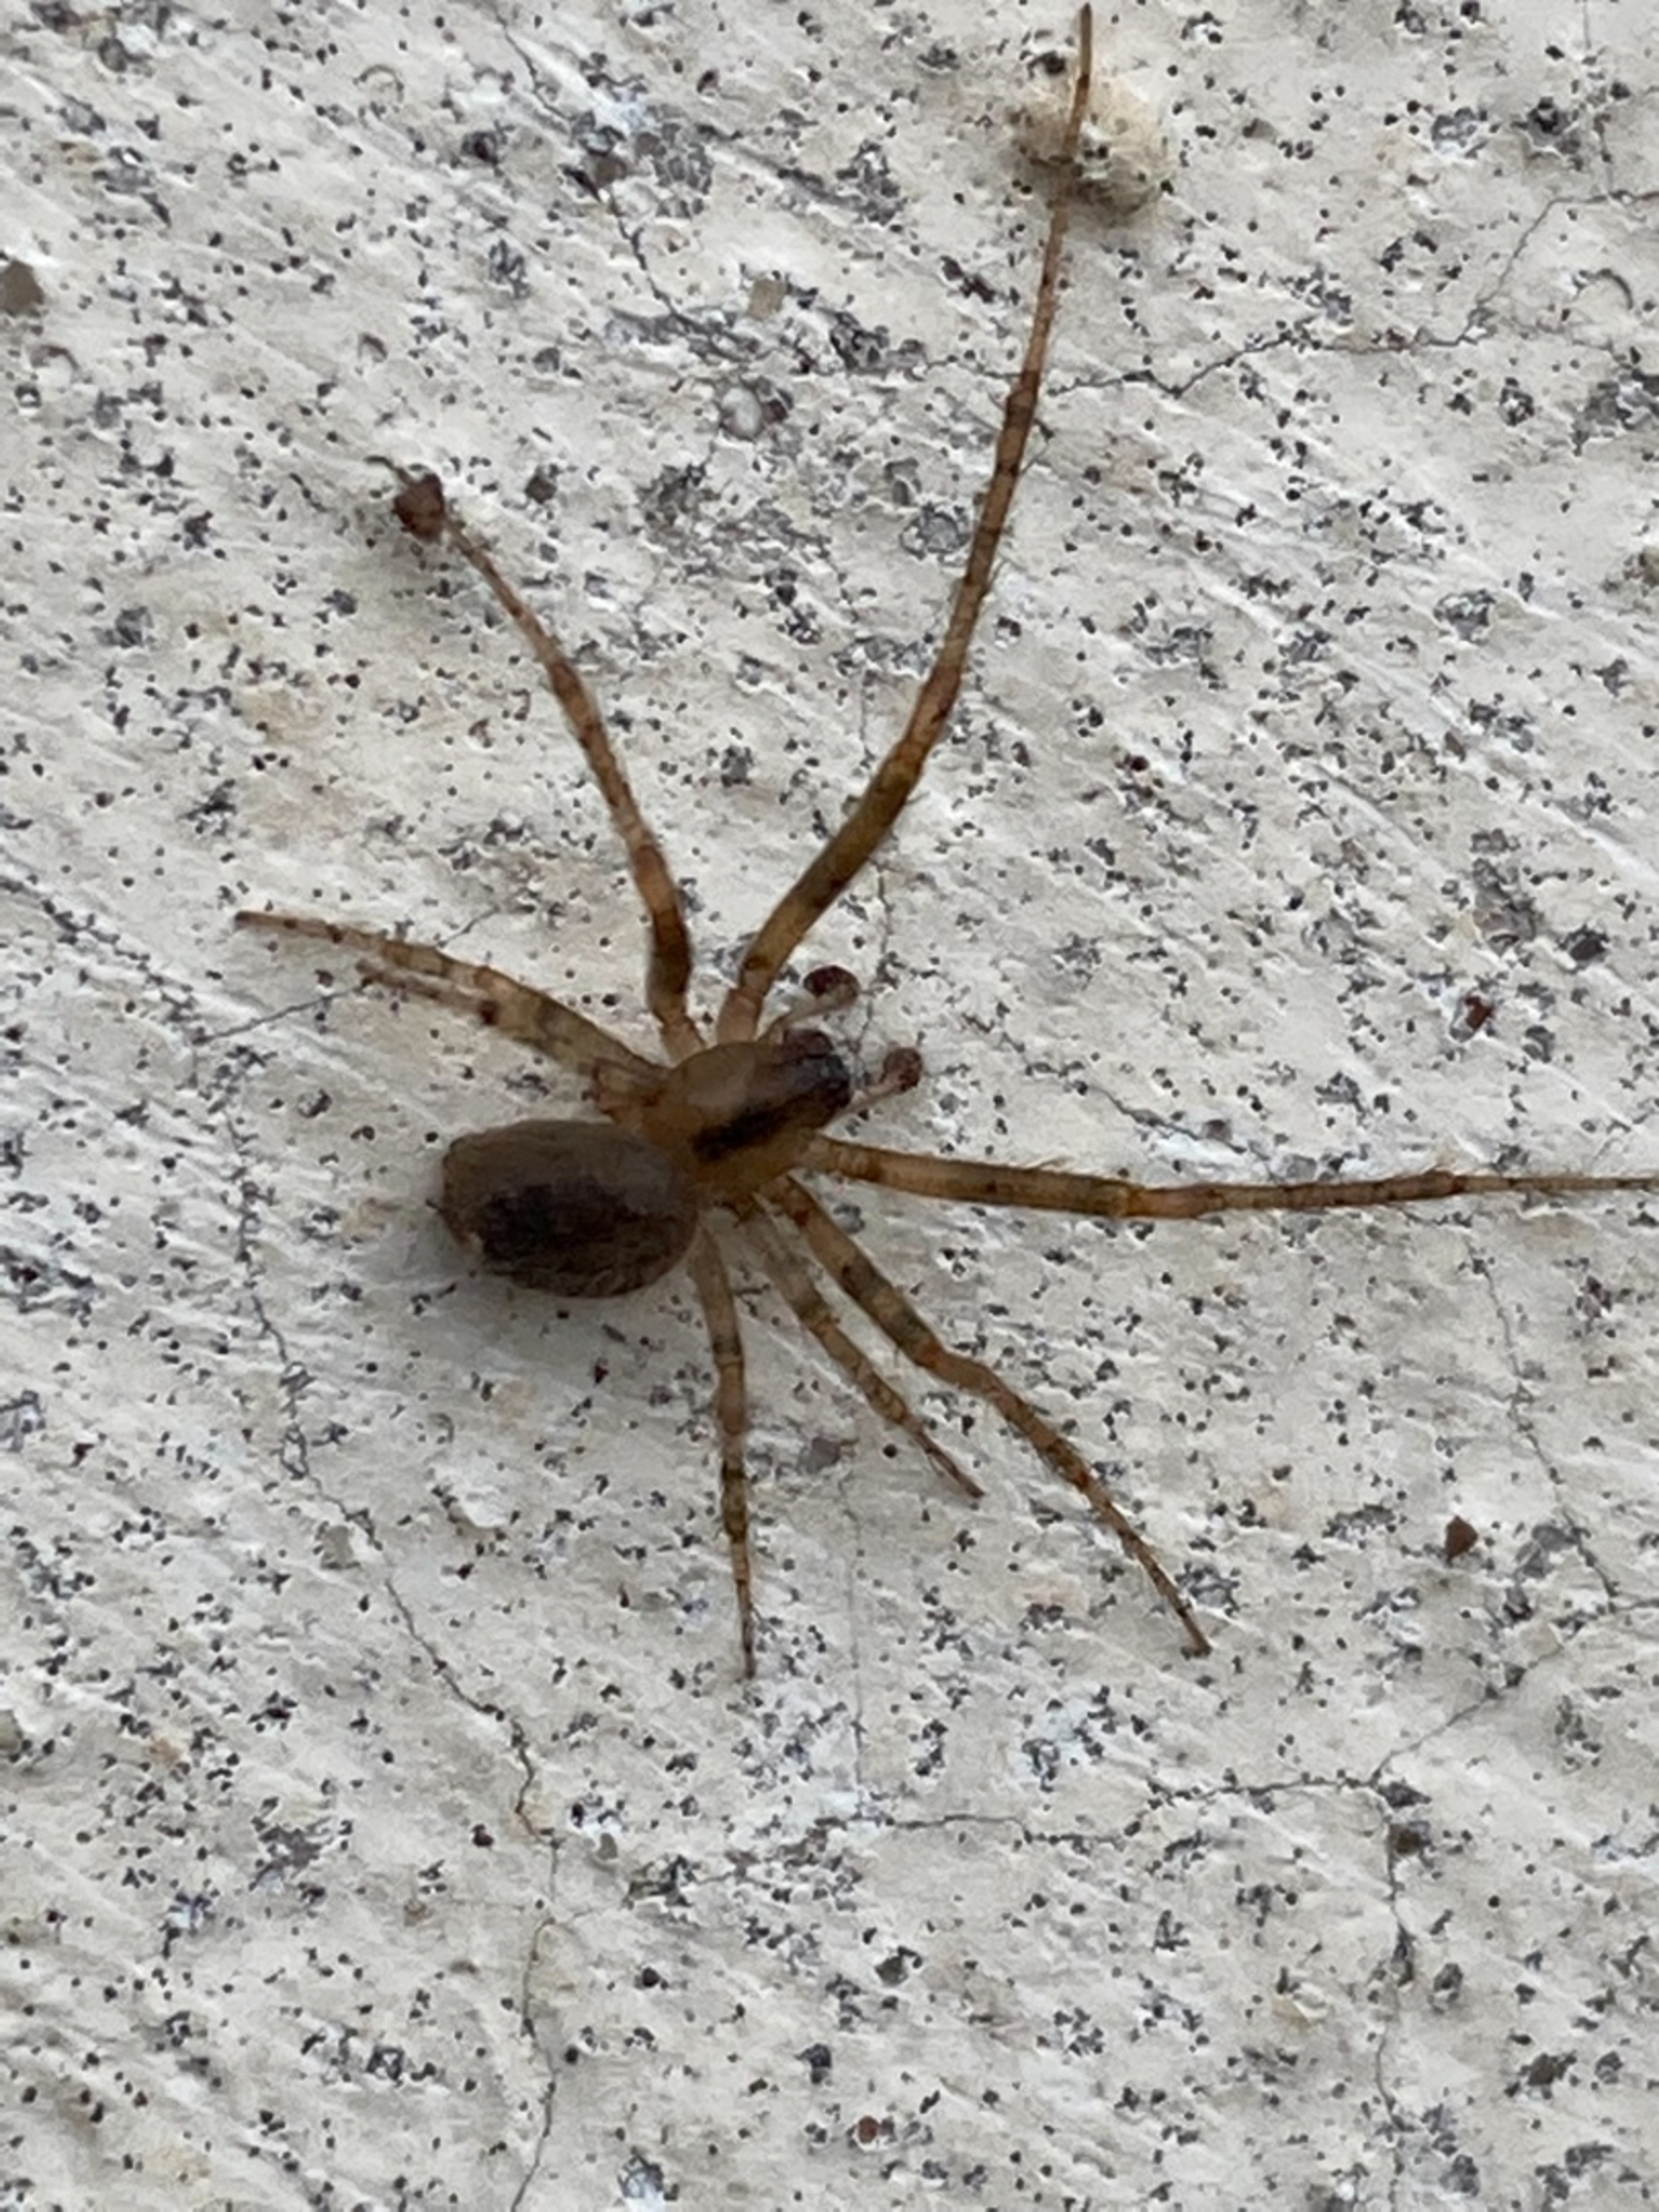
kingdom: Animalia
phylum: Arthropoda
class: Arachnida
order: Araneae
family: Tetragnathidae
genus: Metellina
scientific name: Metellina merianae
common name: Skyggehjulspinder
